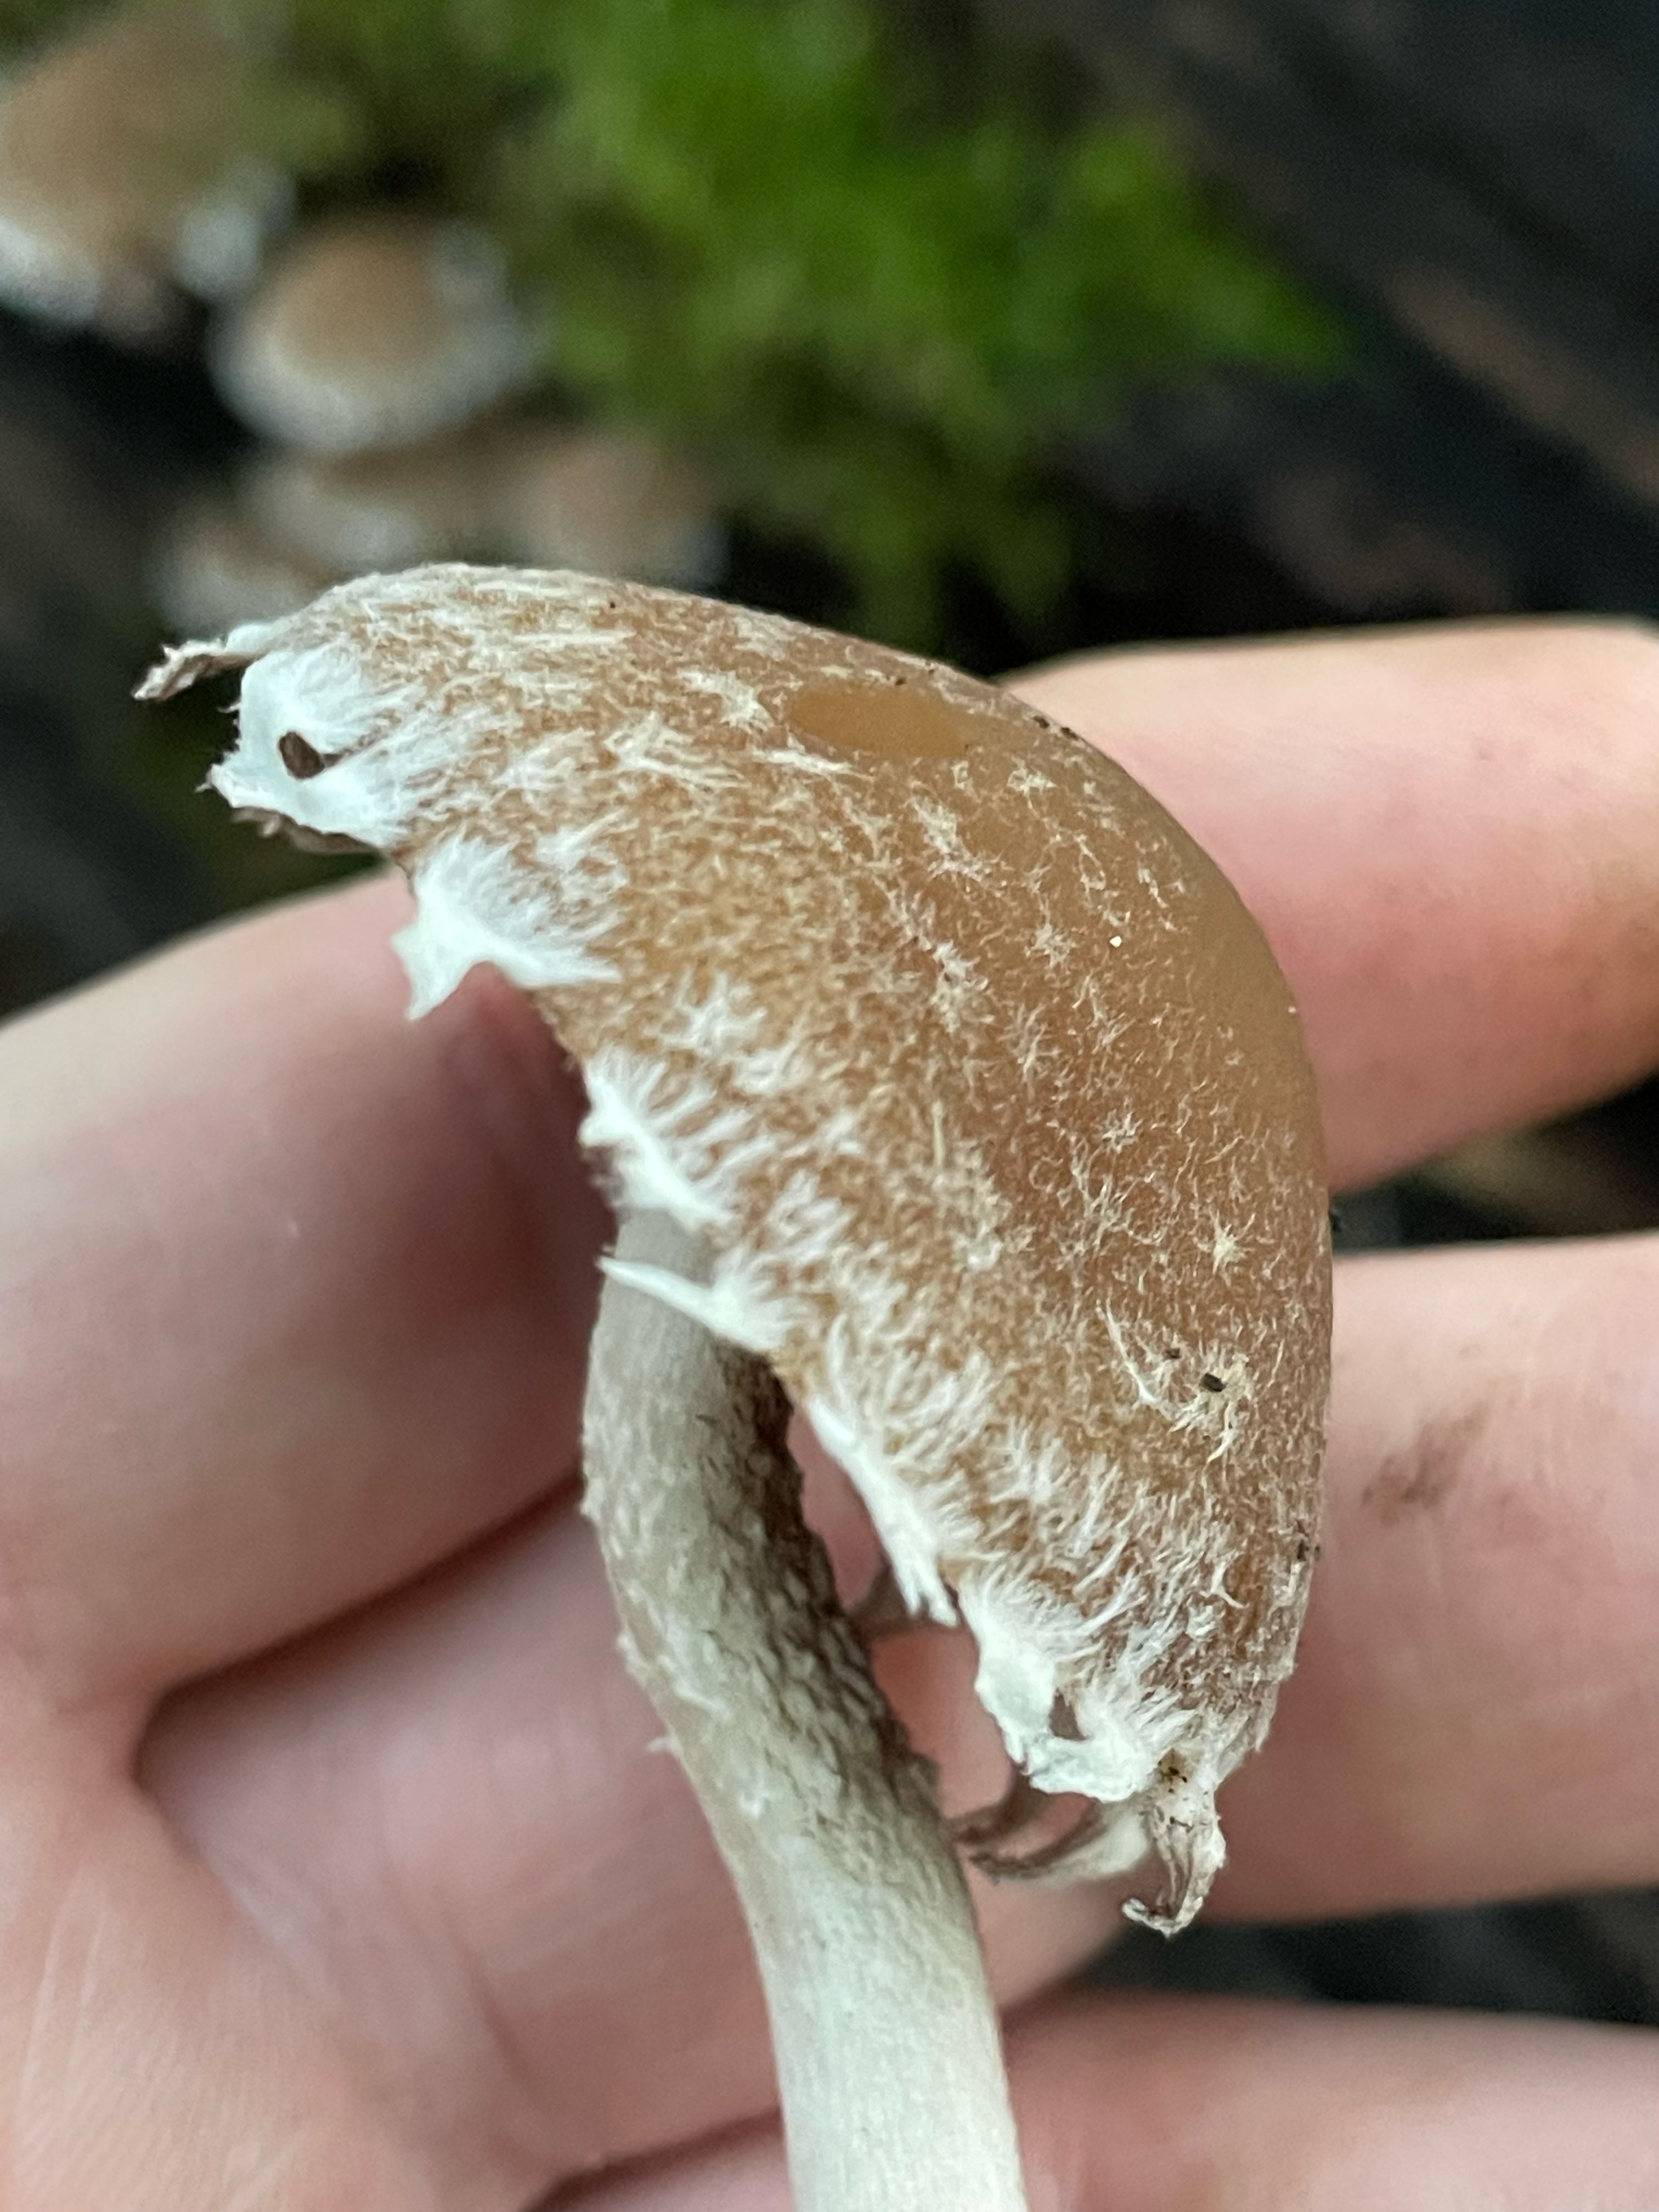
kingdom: Fungi
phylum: Basidiomycota
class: Agaricomycetes
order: Agaricales
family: Psathyrellaceae
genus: Psathyrella
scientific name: Psathyrella
